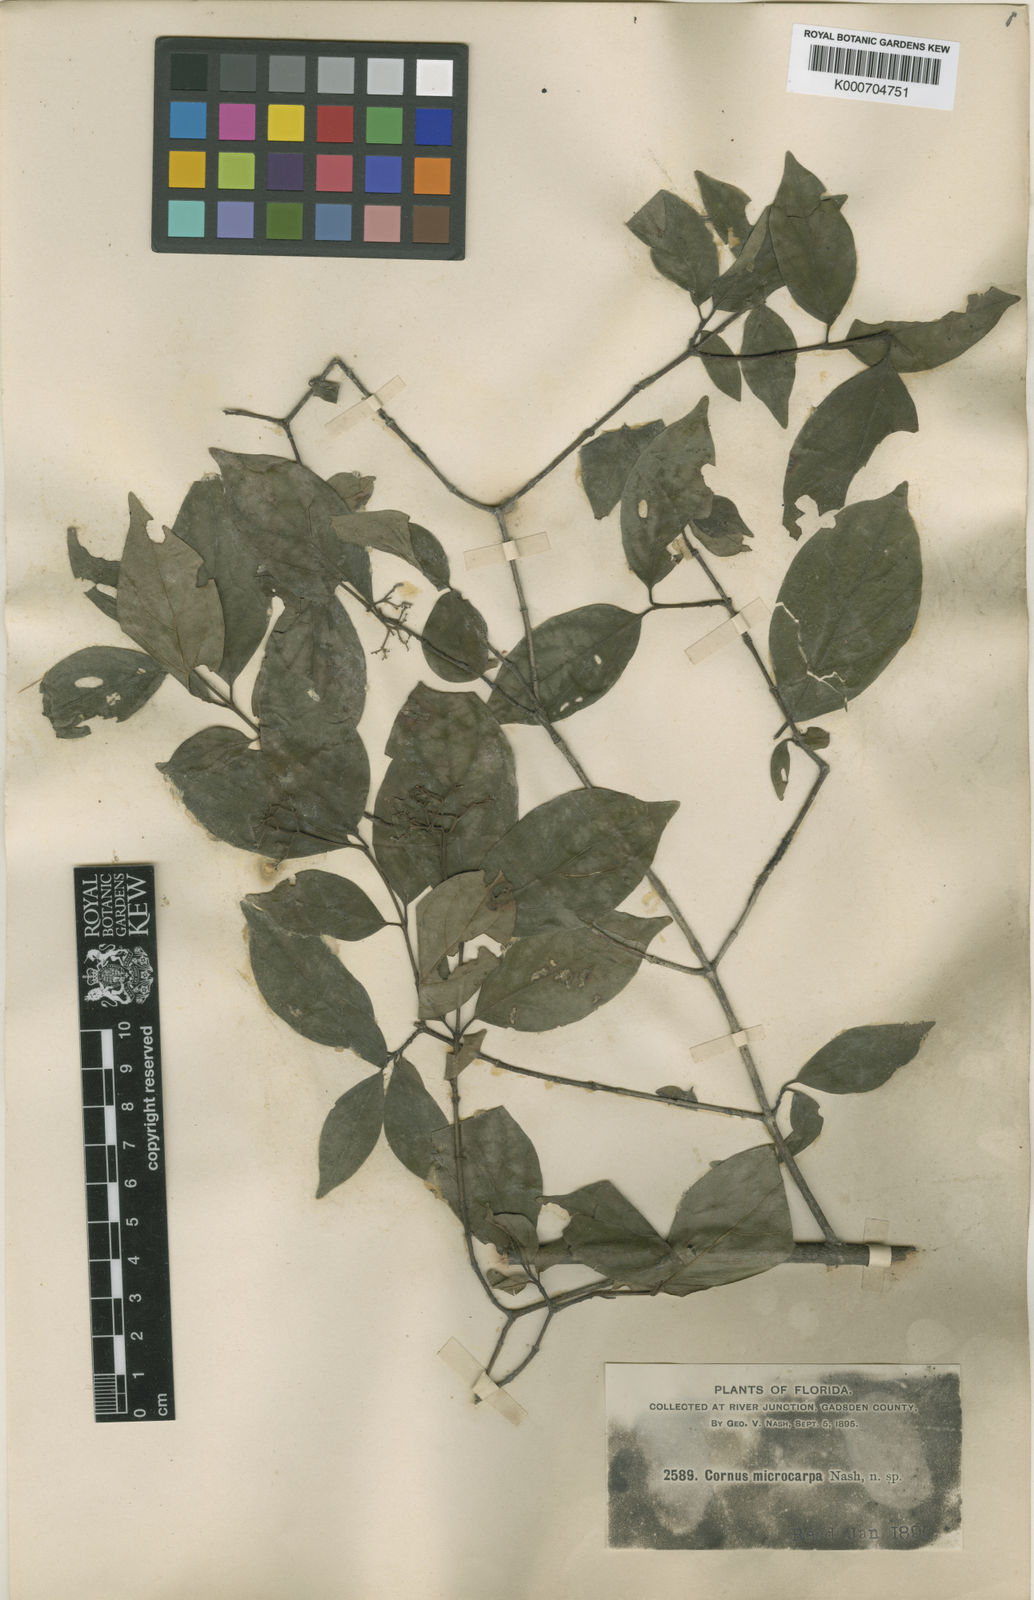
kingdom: Plantae
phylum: Tracheophyta
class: Magnoliopsida
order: Cornales
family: Cornaceae
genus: Cornus
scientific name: Cornus drummondii
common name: Rough-leaf dogwood
